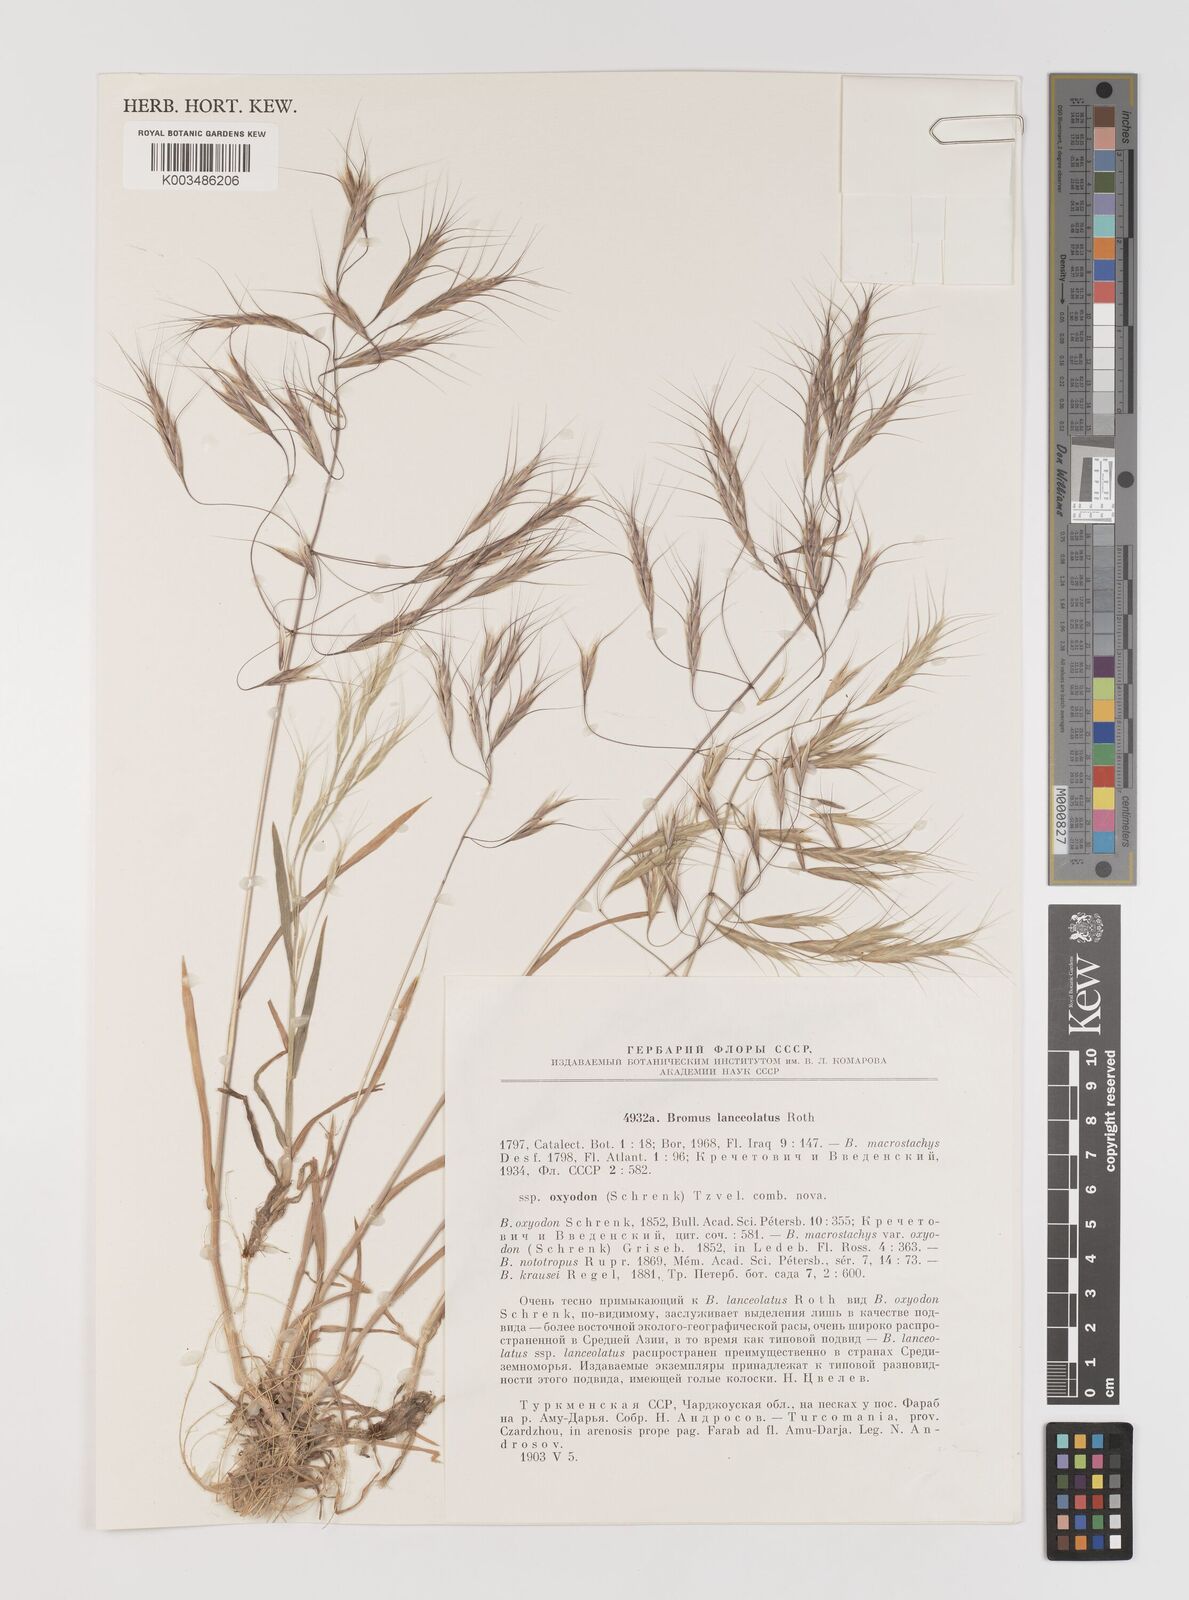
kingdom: Plantae
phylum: Tracheophyta
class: Liliopsida
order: Poales
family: Poaceae
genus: Bromus
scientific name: Bromus oxyodon
